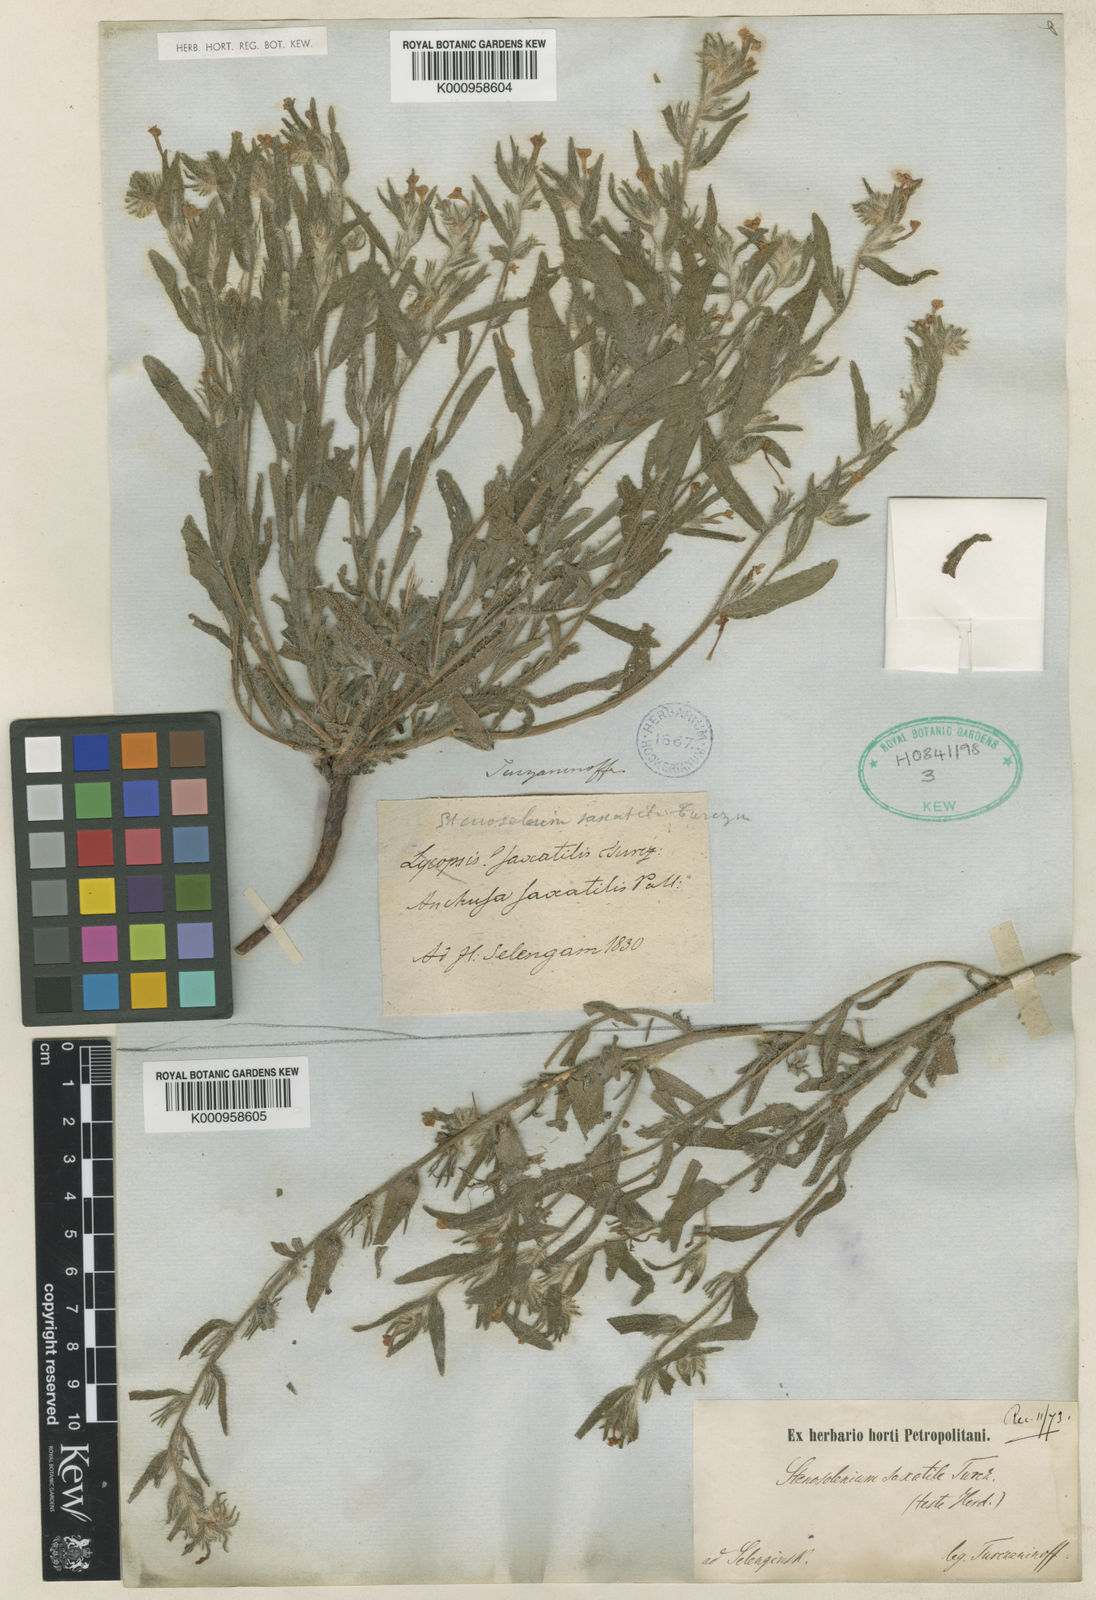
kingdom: Plantae
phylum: Tracheophyta
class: Magnoliopsida
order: Boraginales
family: Boraginaceae
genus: Arnebia
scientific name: Arnebia
